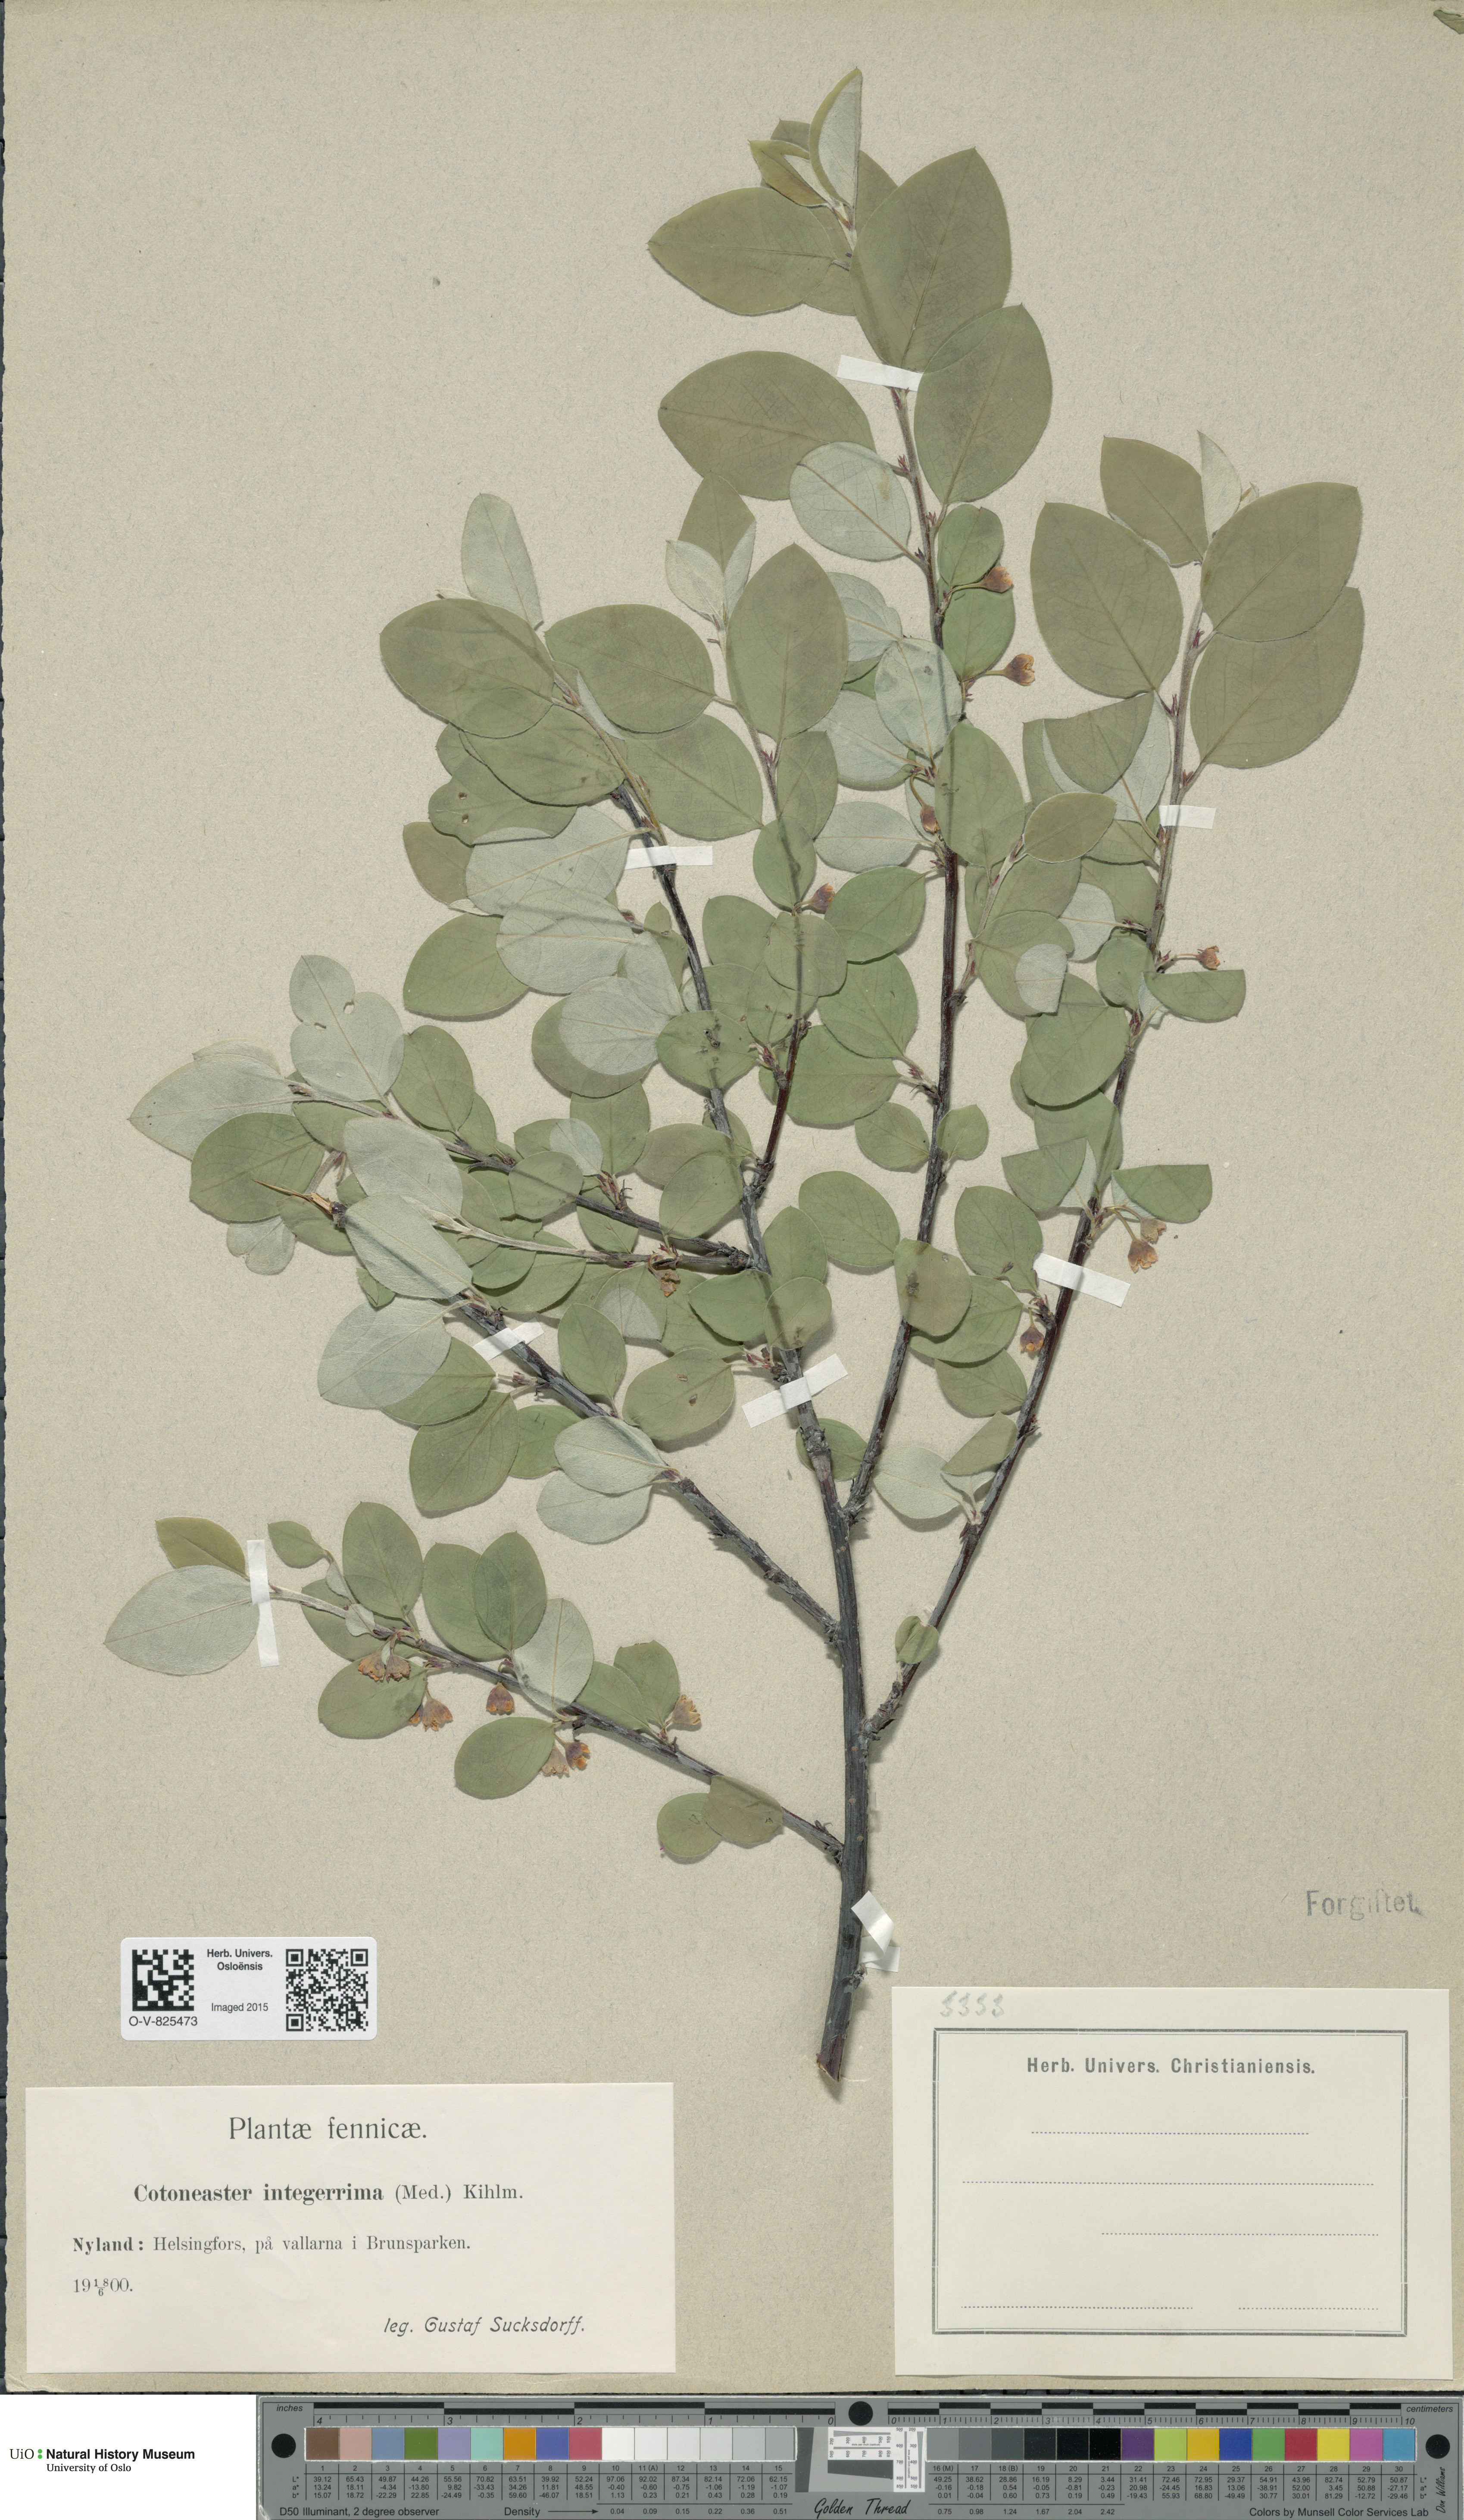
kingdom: Plantae
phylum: Tracheophyta
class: Magnoliopsida
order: Rosales
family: Rosaceae
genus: Cotoneaster
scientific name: Cotoneaster integerrimus
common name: Wild cotoneaster
